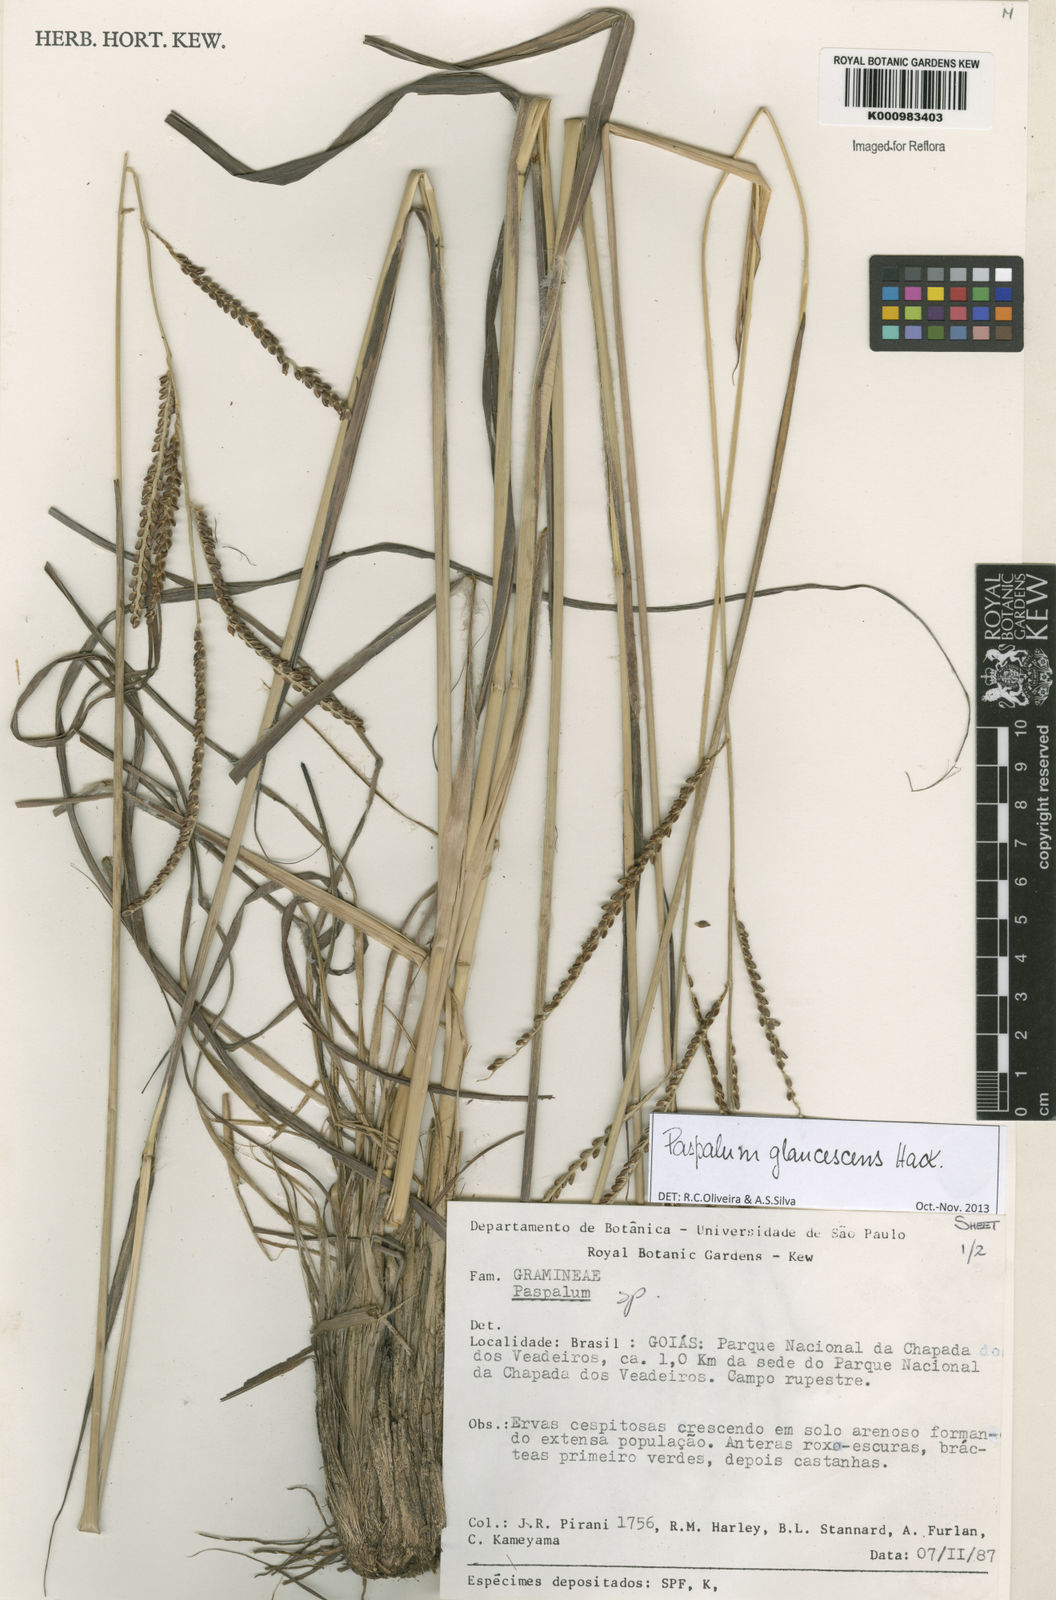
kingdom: Plantae
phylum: Tracheophyta
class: Liliopsida
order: Poales
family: Poaceae
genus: Paspalum
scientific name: Paspalum glaucescens
